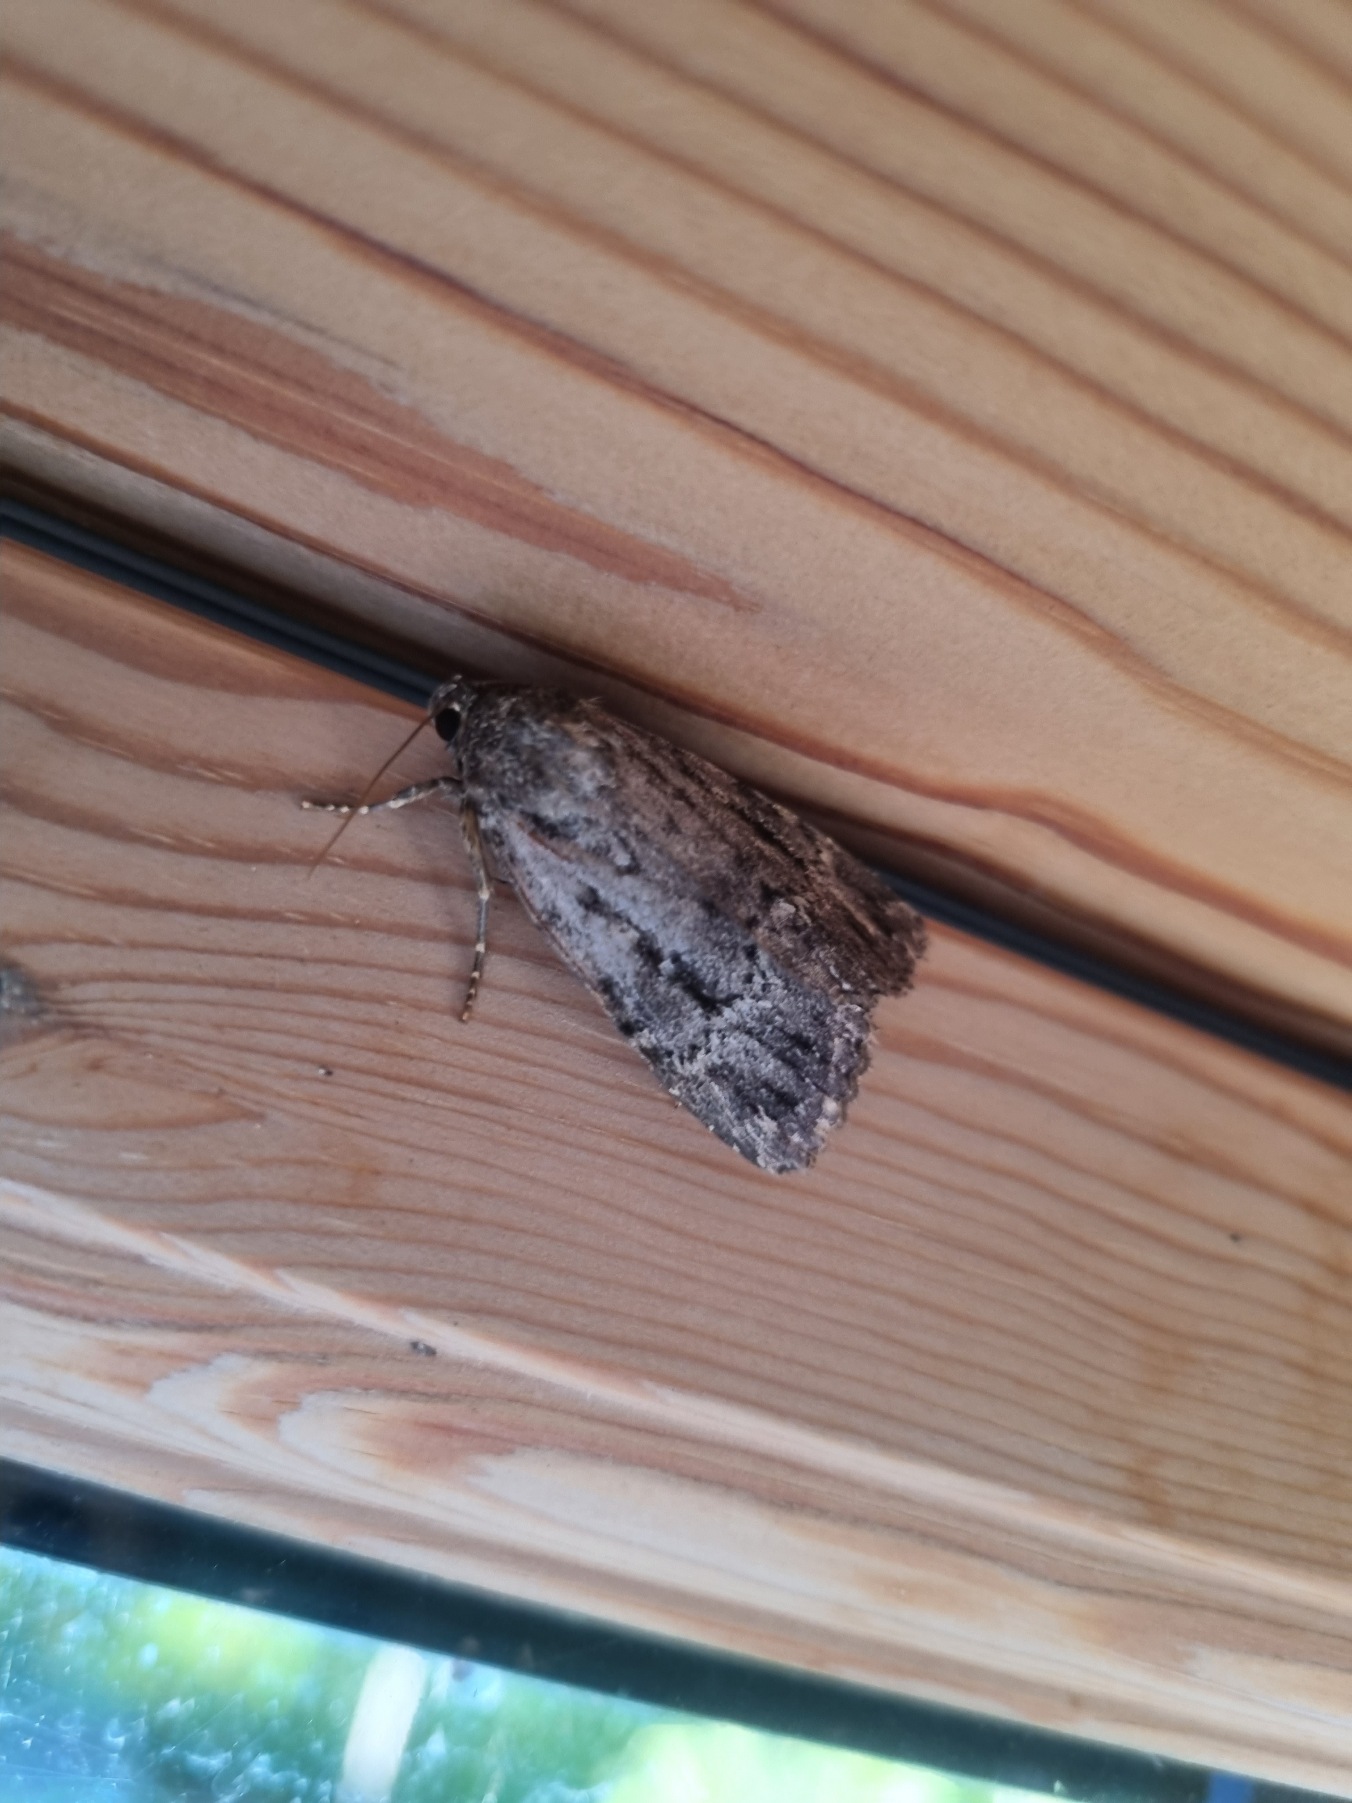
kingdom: Animalia
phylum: Arthropoda
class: Insecta
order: Lepidoptera
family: Noctuidae
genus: Amphipyra
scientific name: Amphipyra pyramidea
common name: Pyramideugle
